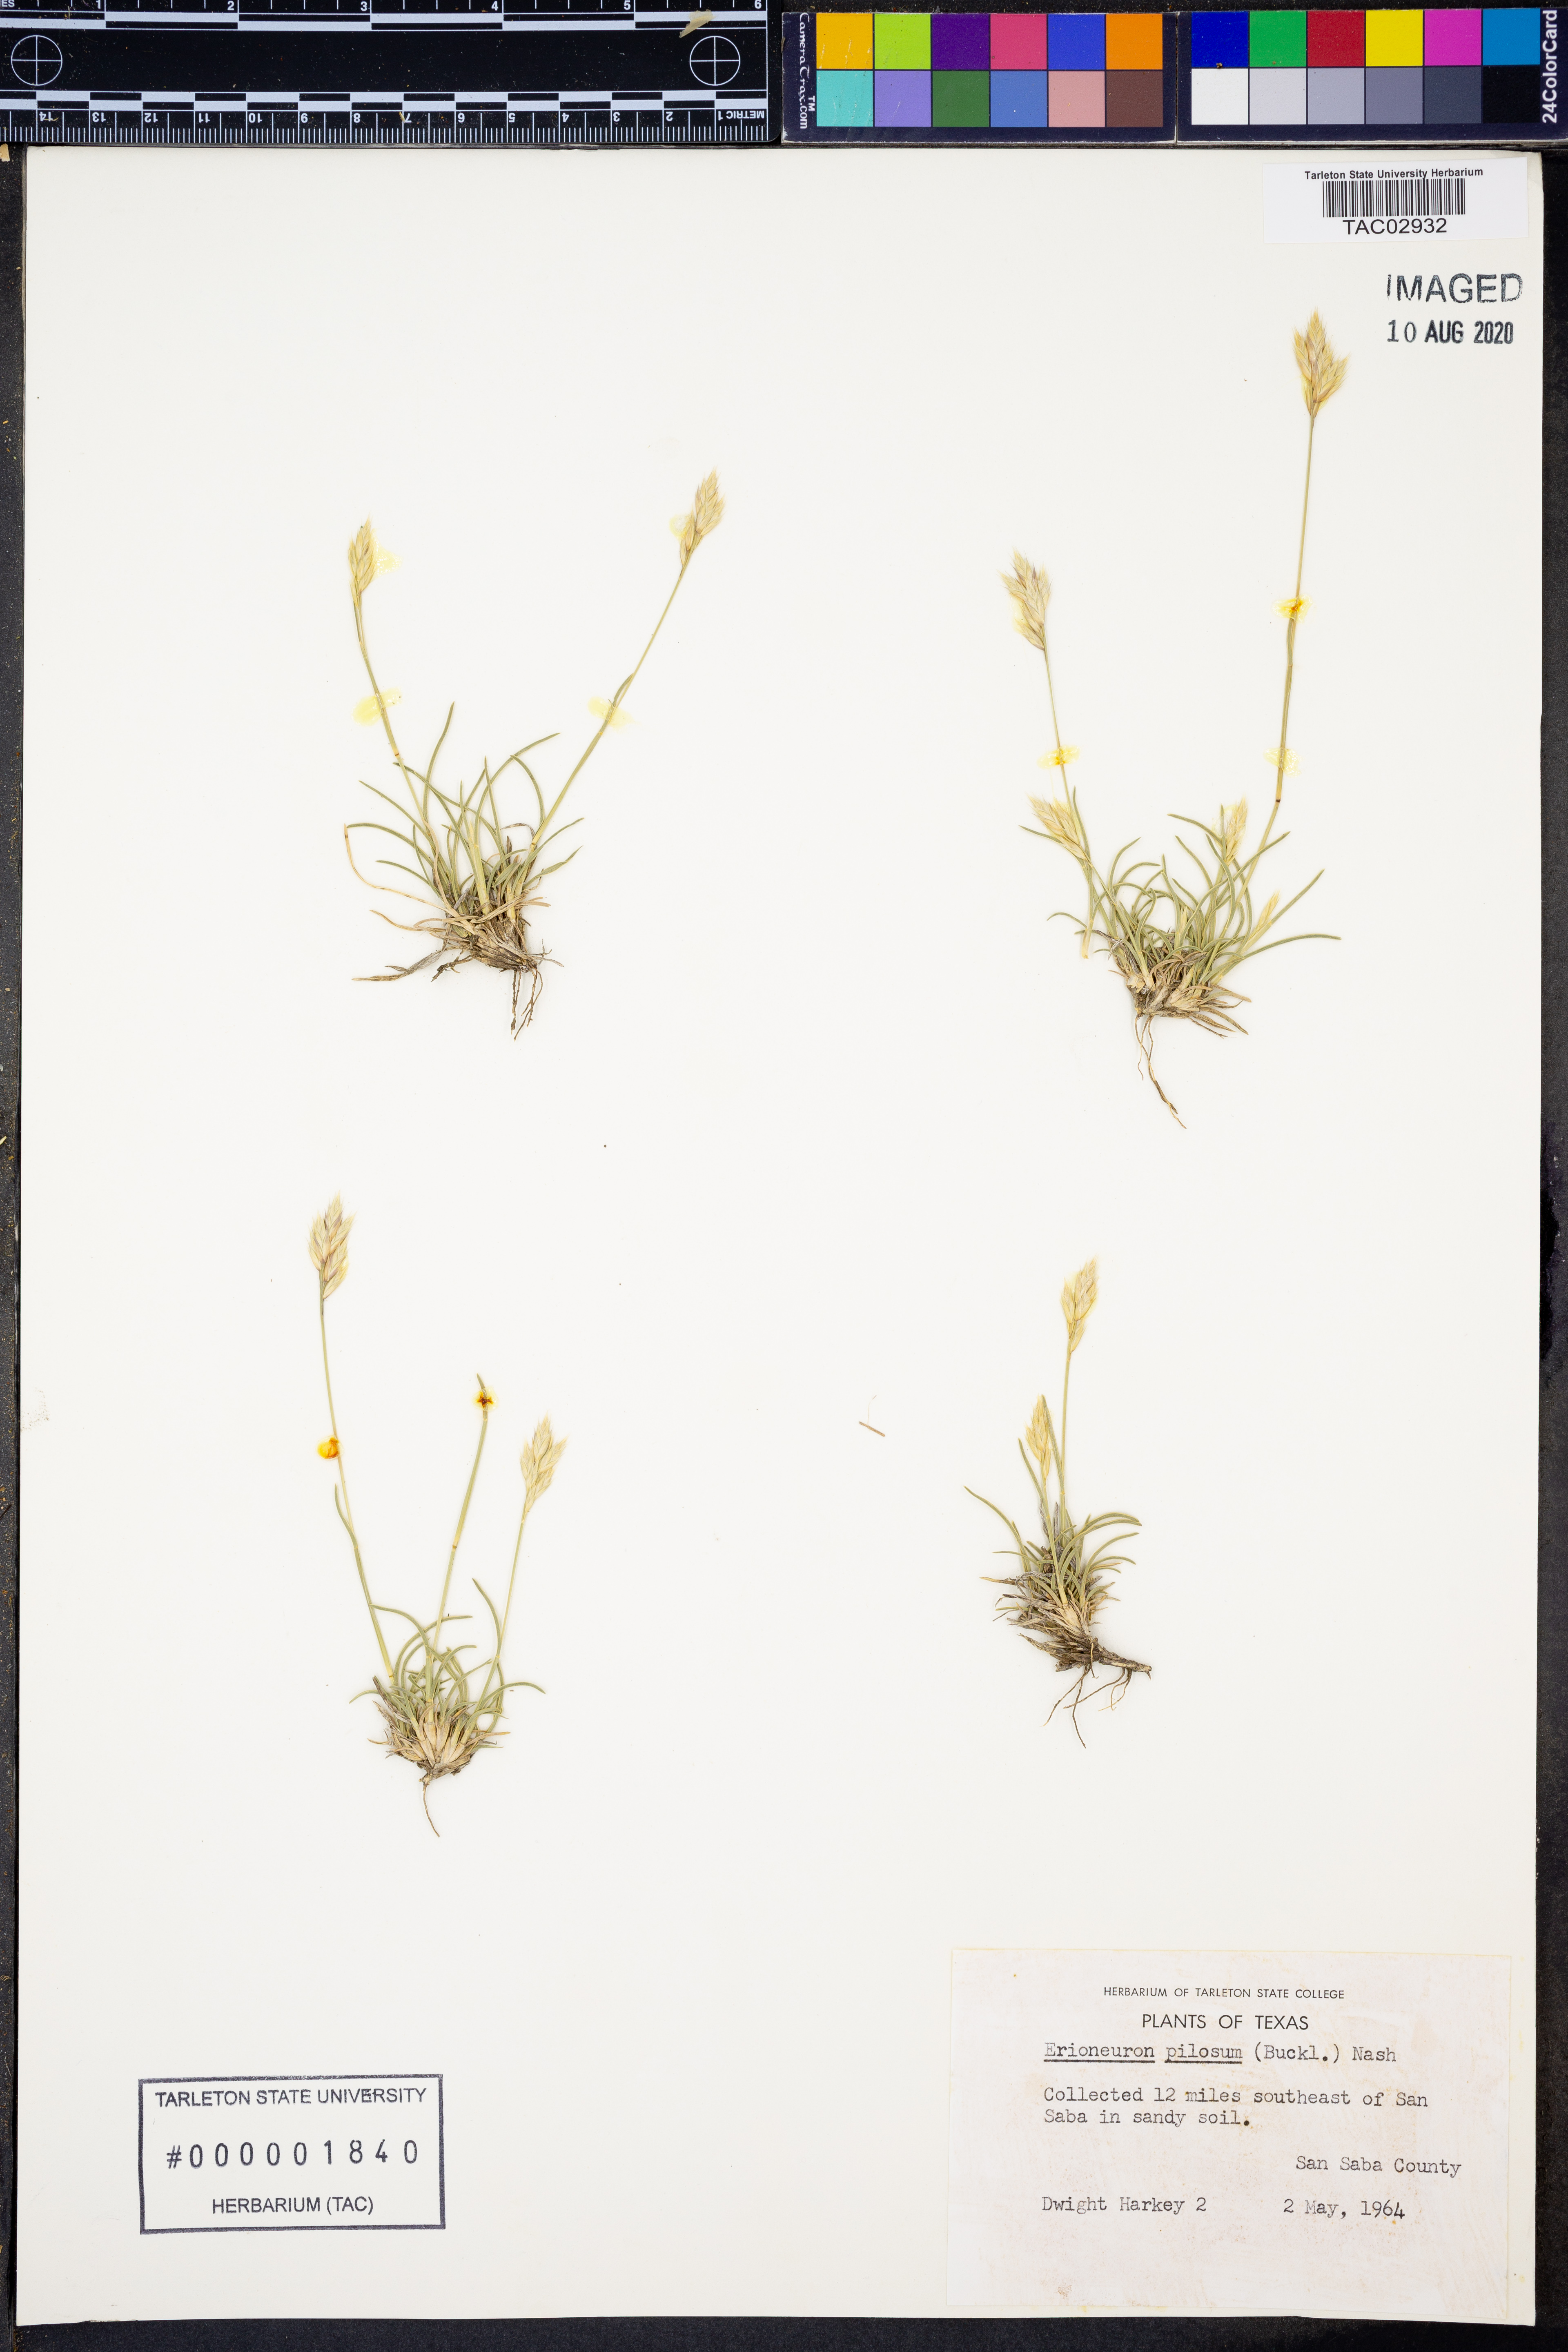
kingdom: Plantae
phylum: Tracheophyta
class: Liliopsida
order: Poales
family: Poaceae
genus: Erioneuron
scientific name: Erioneuron pilosum
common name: Hairy woolly grass
